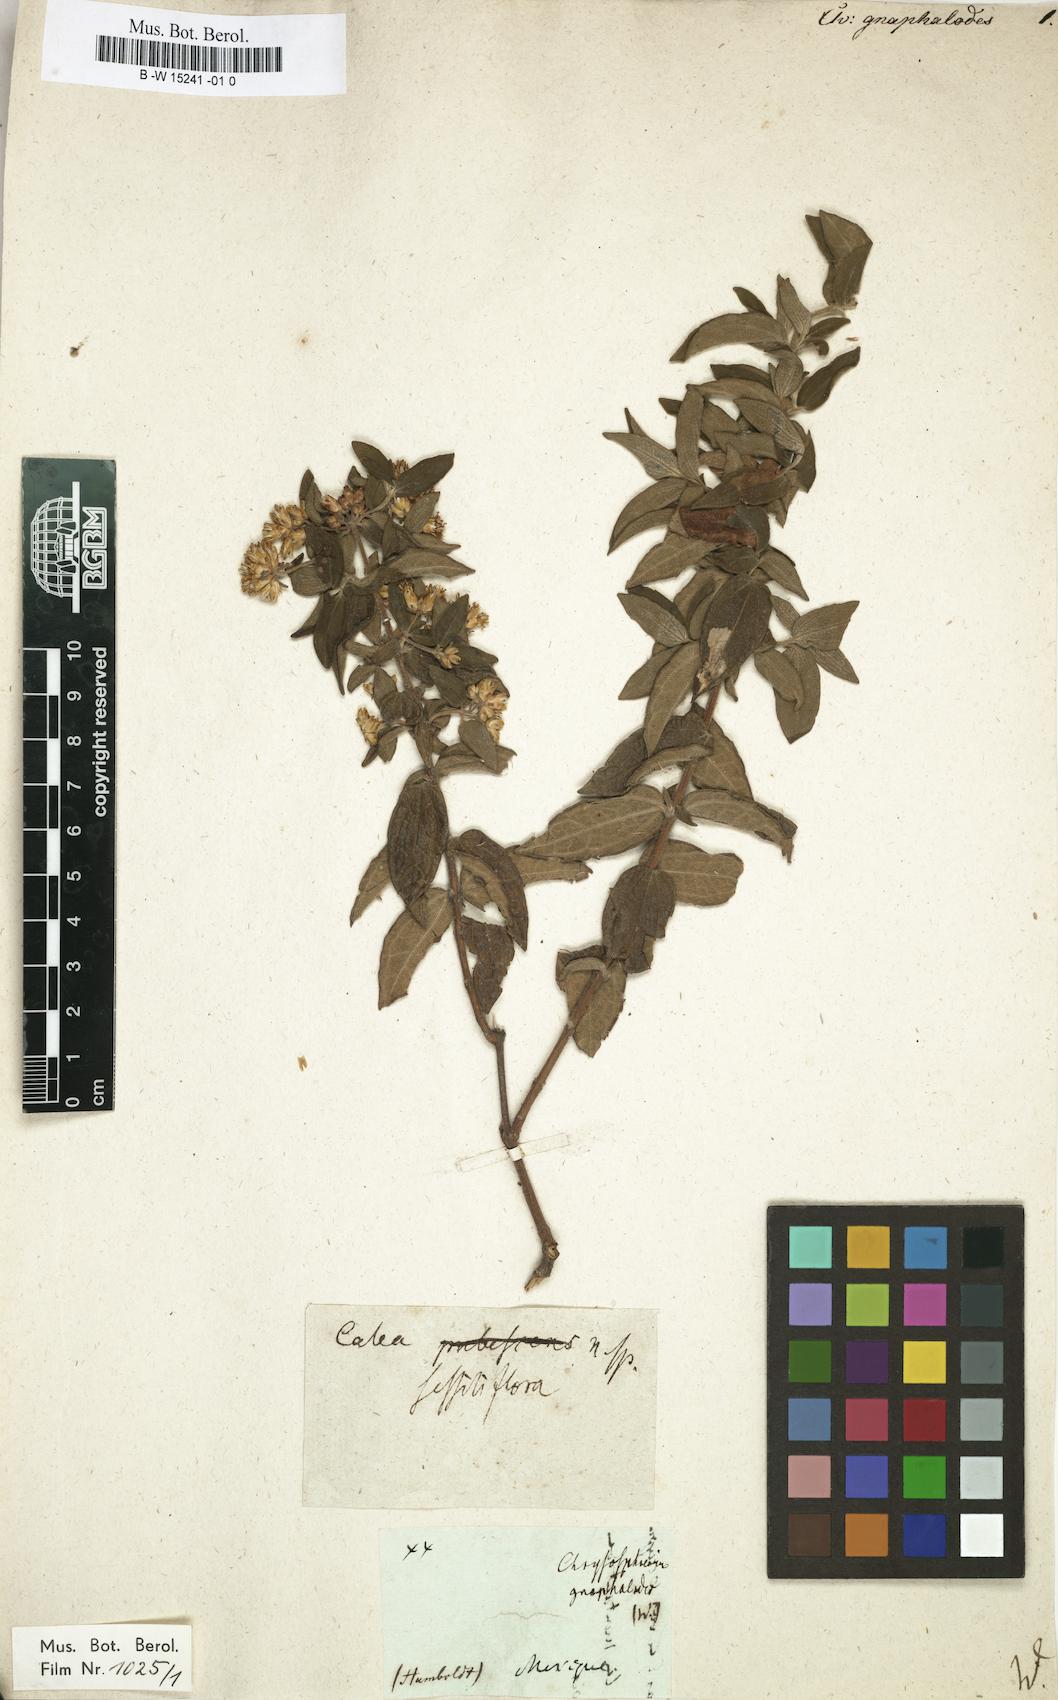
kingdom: Plantae
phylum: Tracheophyta
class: Magnoliopsida
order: Asterales
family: Asteraceae
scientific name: Asteraceae
